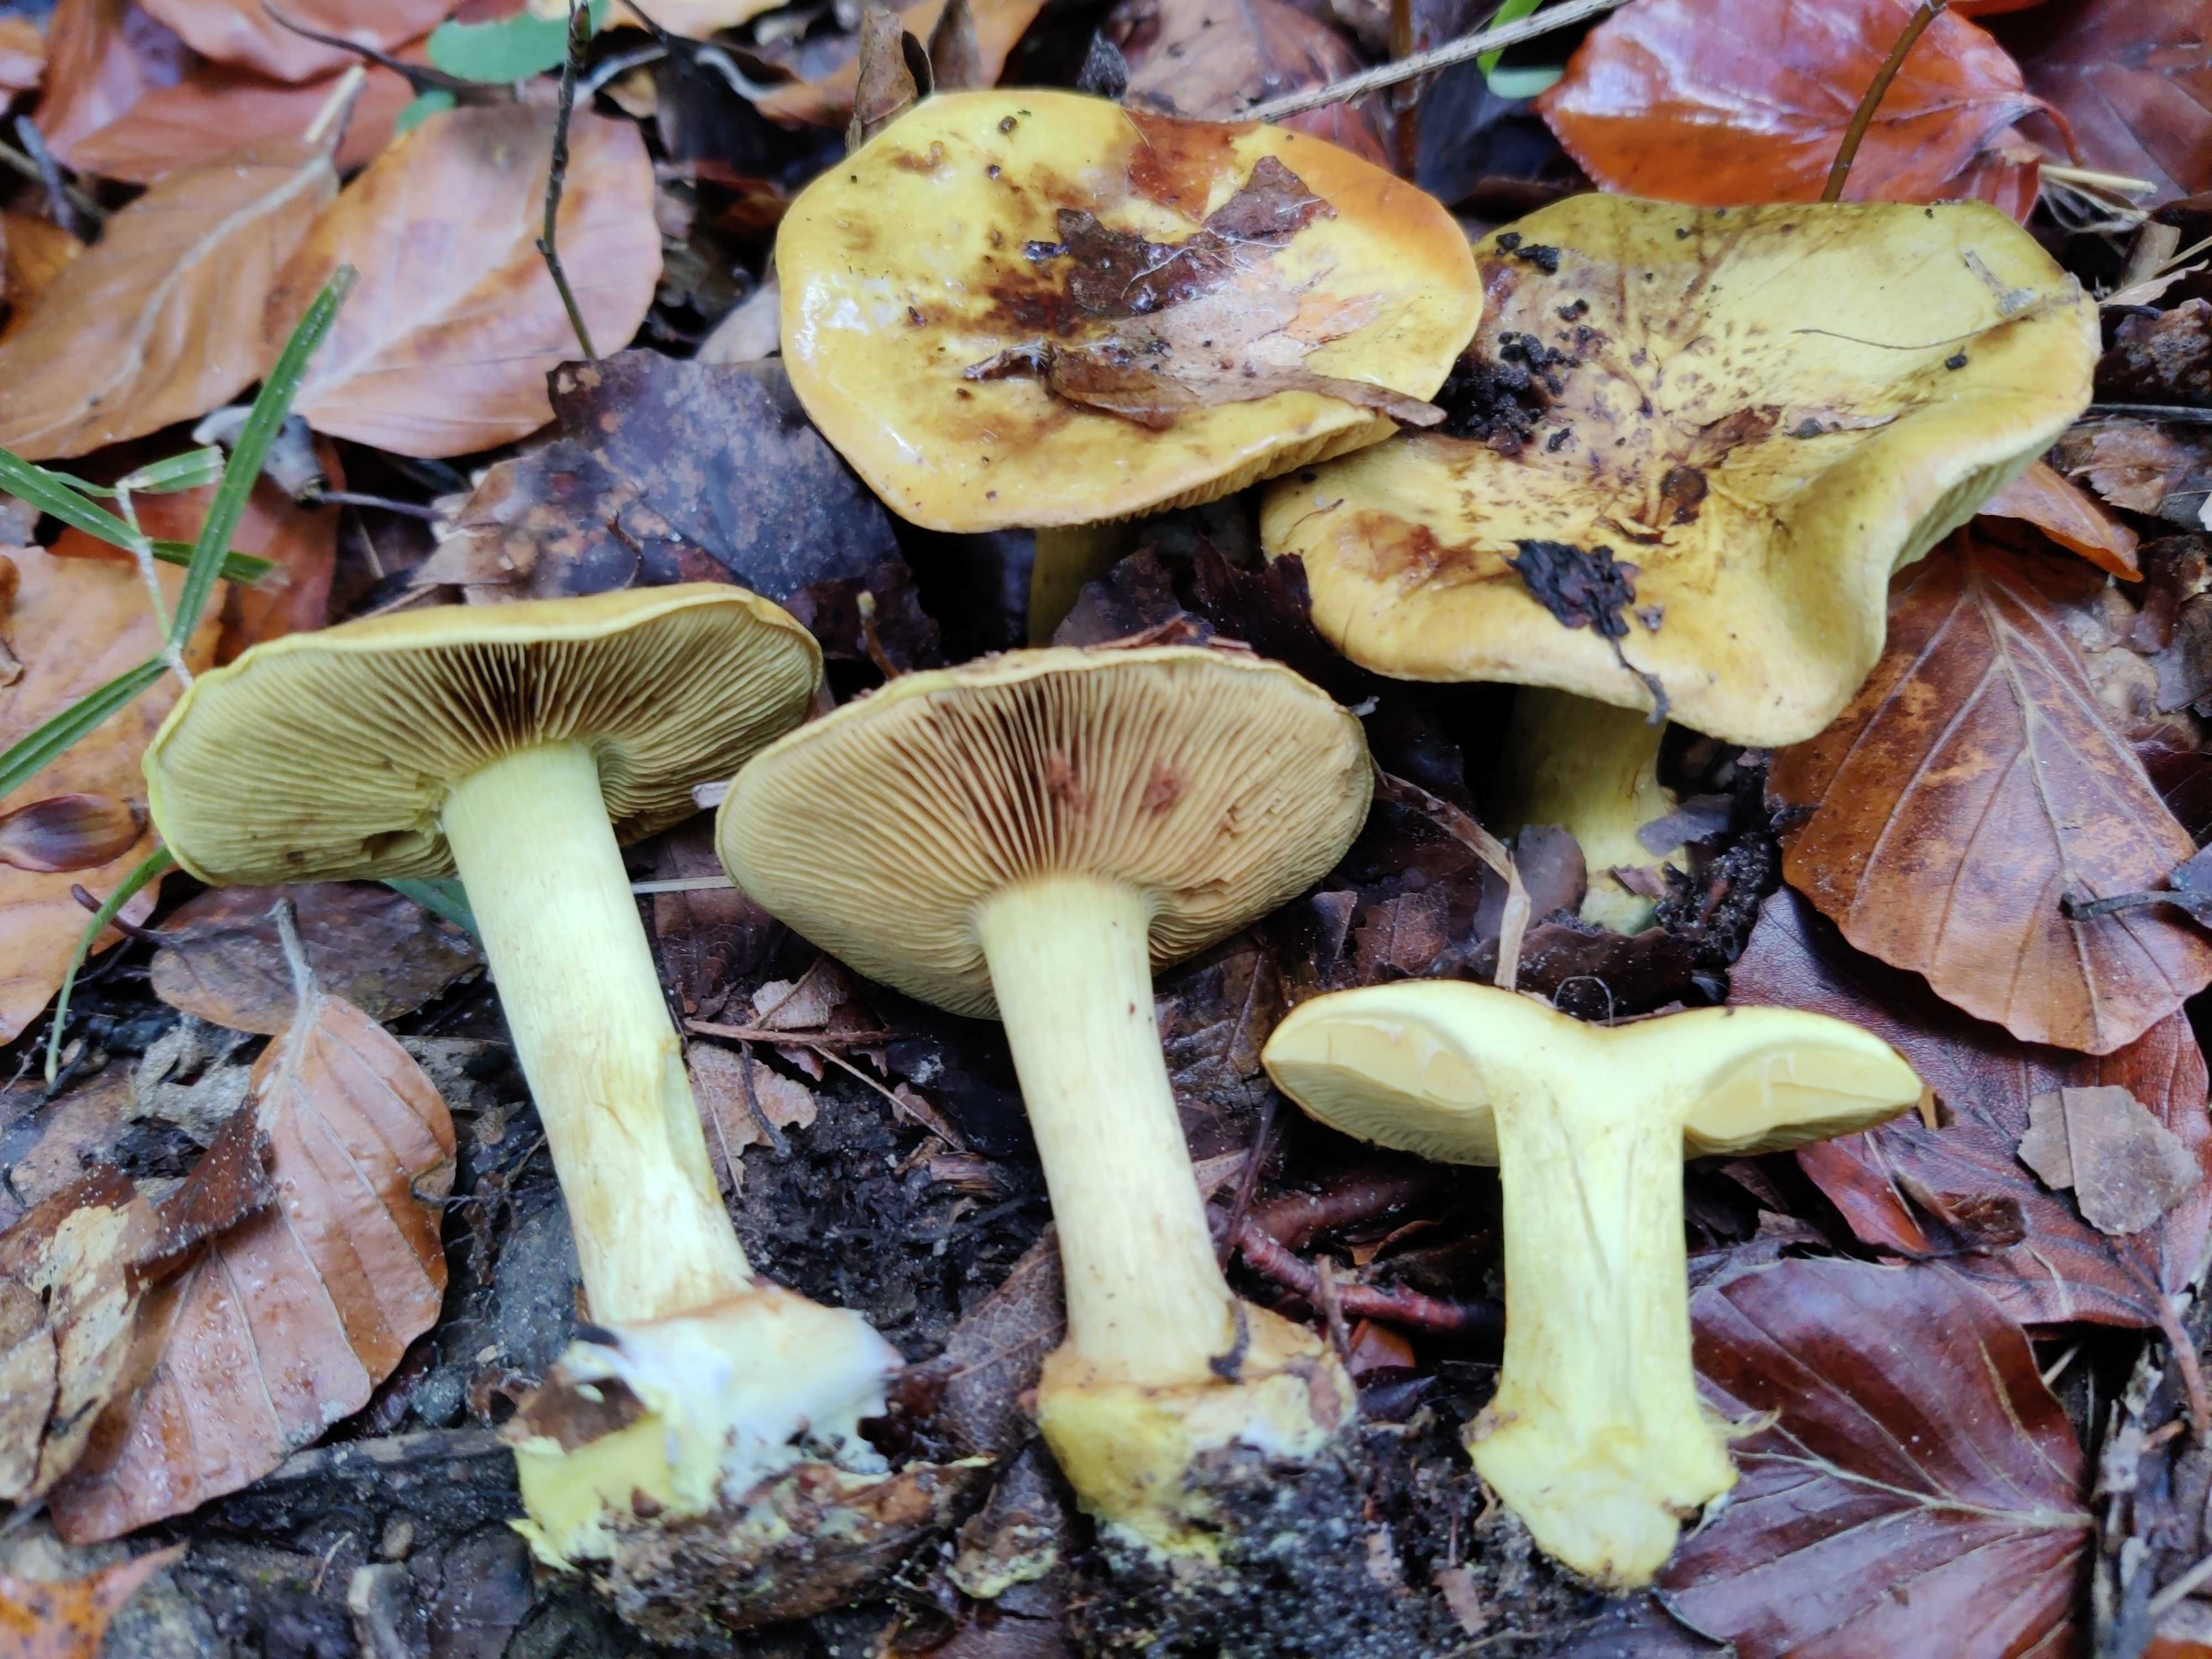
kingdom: Fungi
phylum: Basidiomycota
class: Agaricomycetes
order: Agaricales
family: Cortinariaceae
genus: Calonarius
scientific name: Calonarius citrinus
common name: citrongul slørhat
